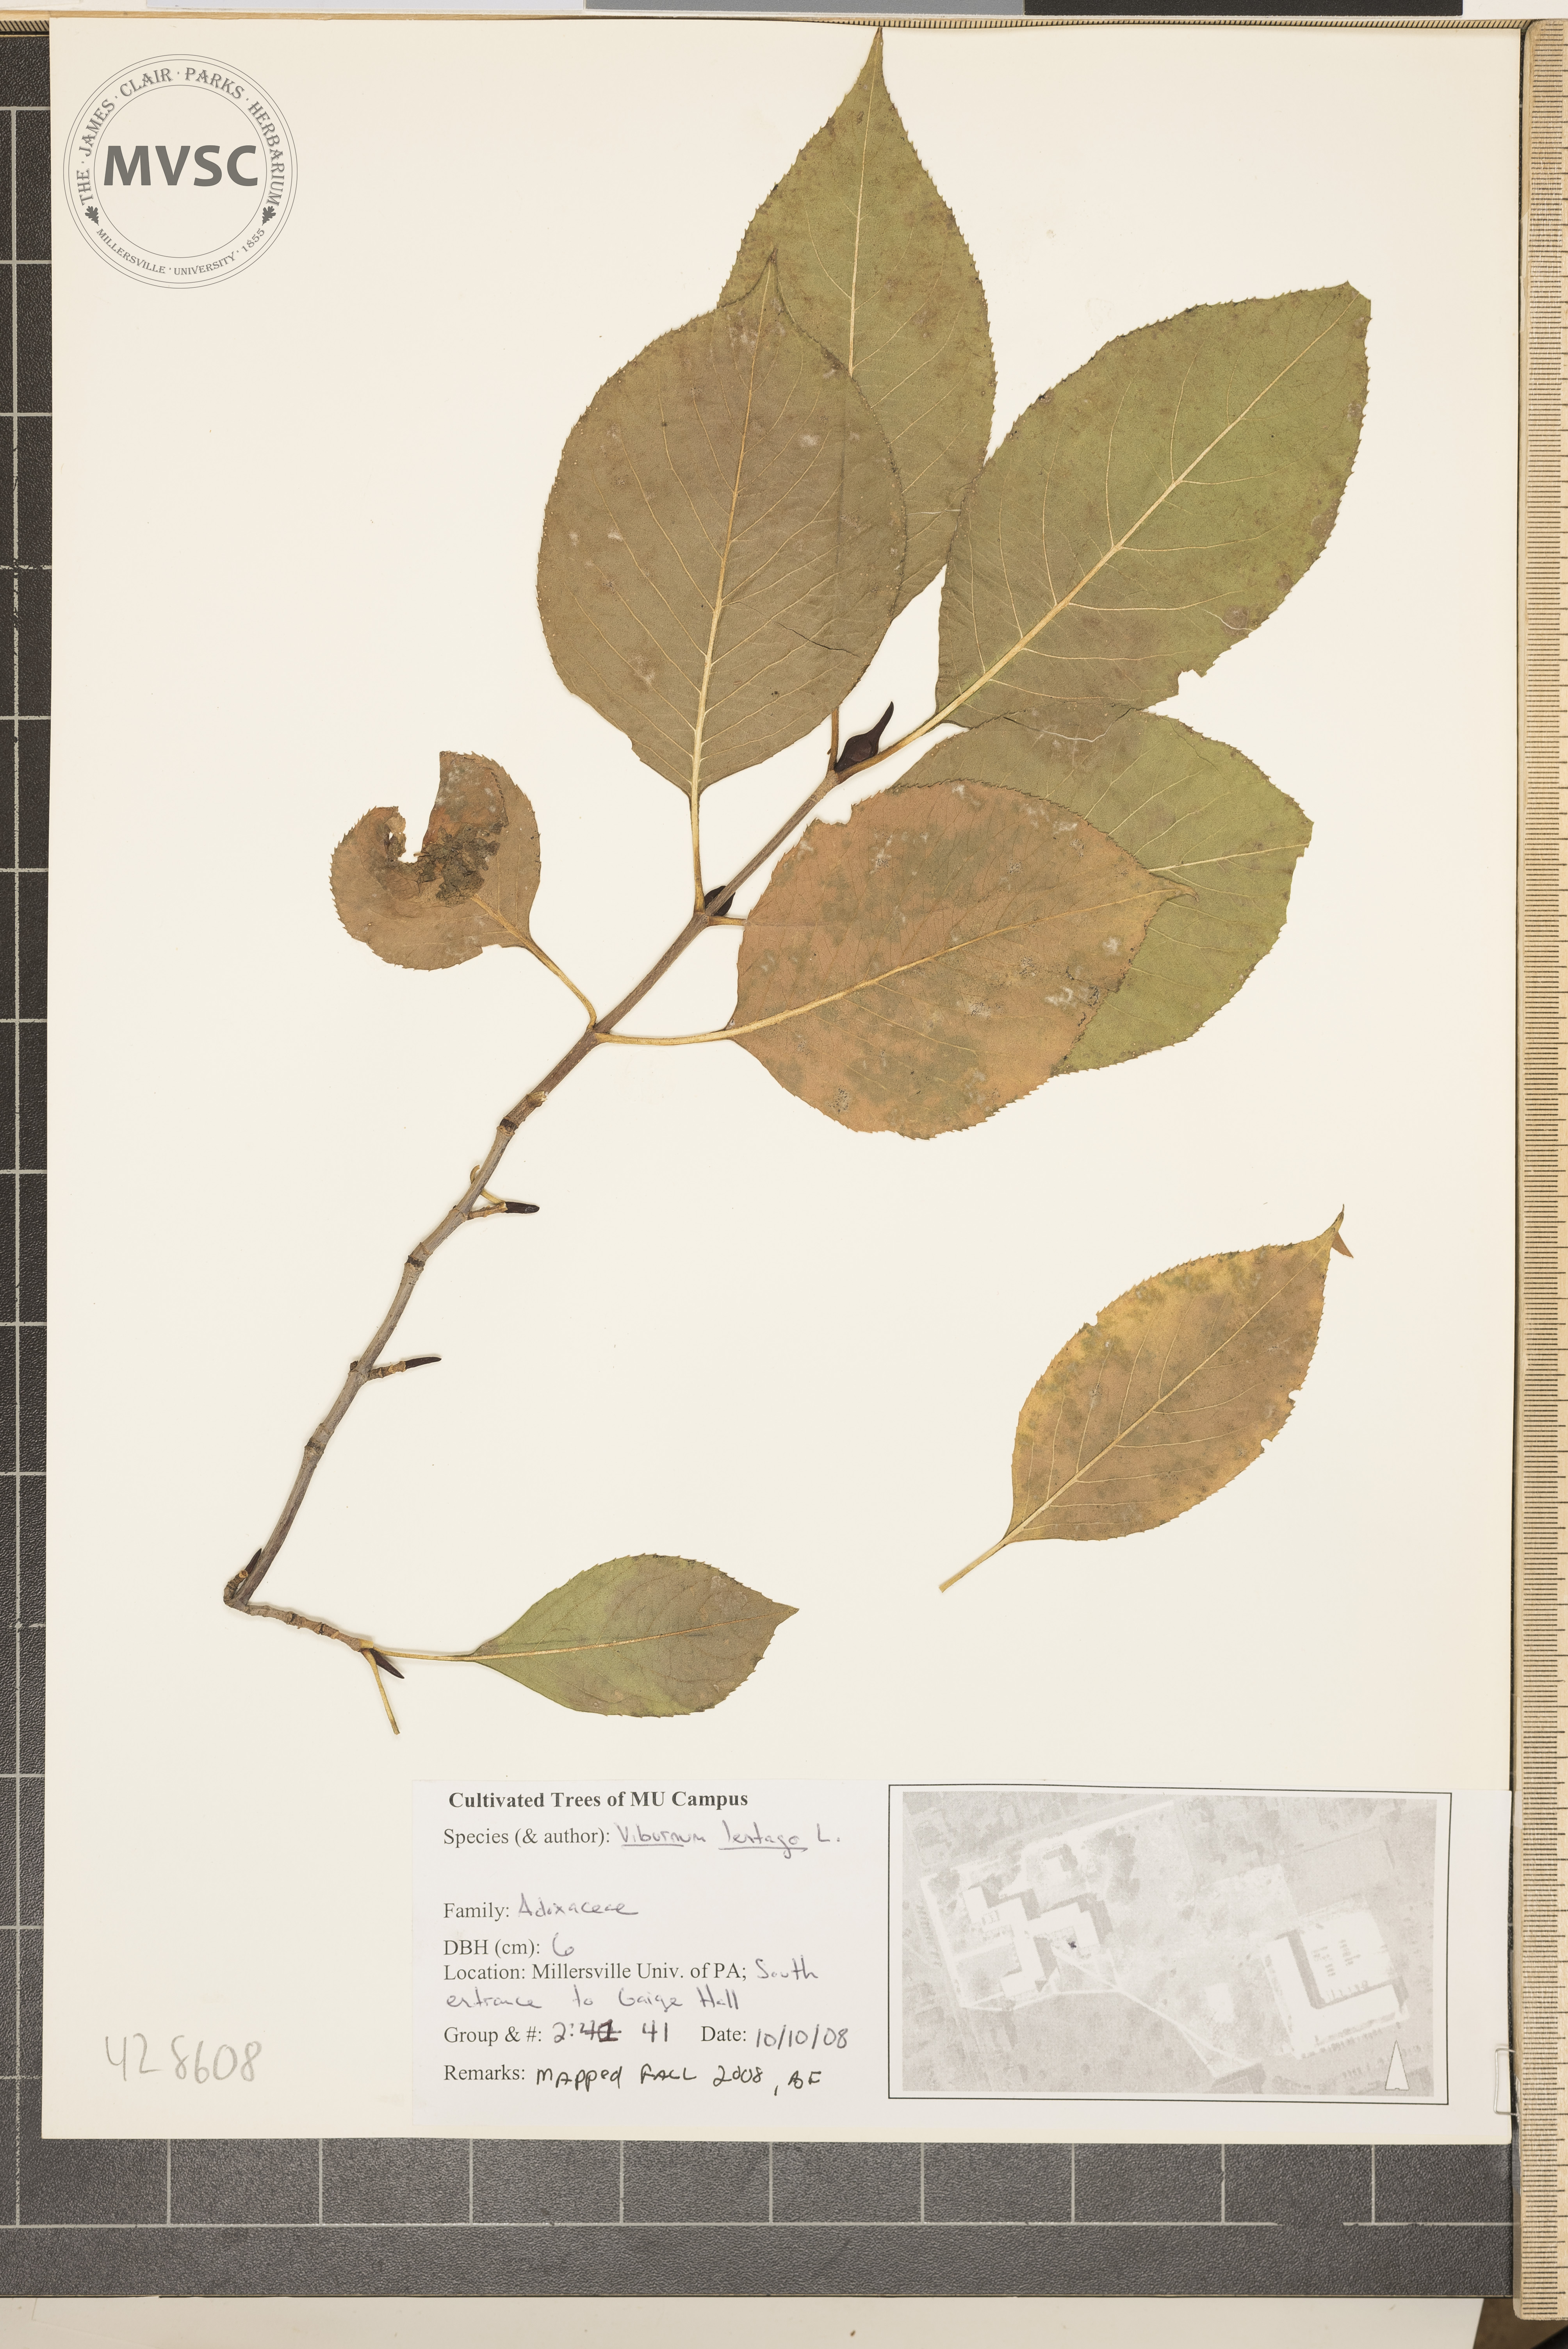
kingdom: Plantae
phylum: Tracheophyta
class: Magnoliopsida
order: Dipsacales
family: Viburnaceae
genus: Viburnum
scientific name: Viburnum lentago
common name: Sheepberry
